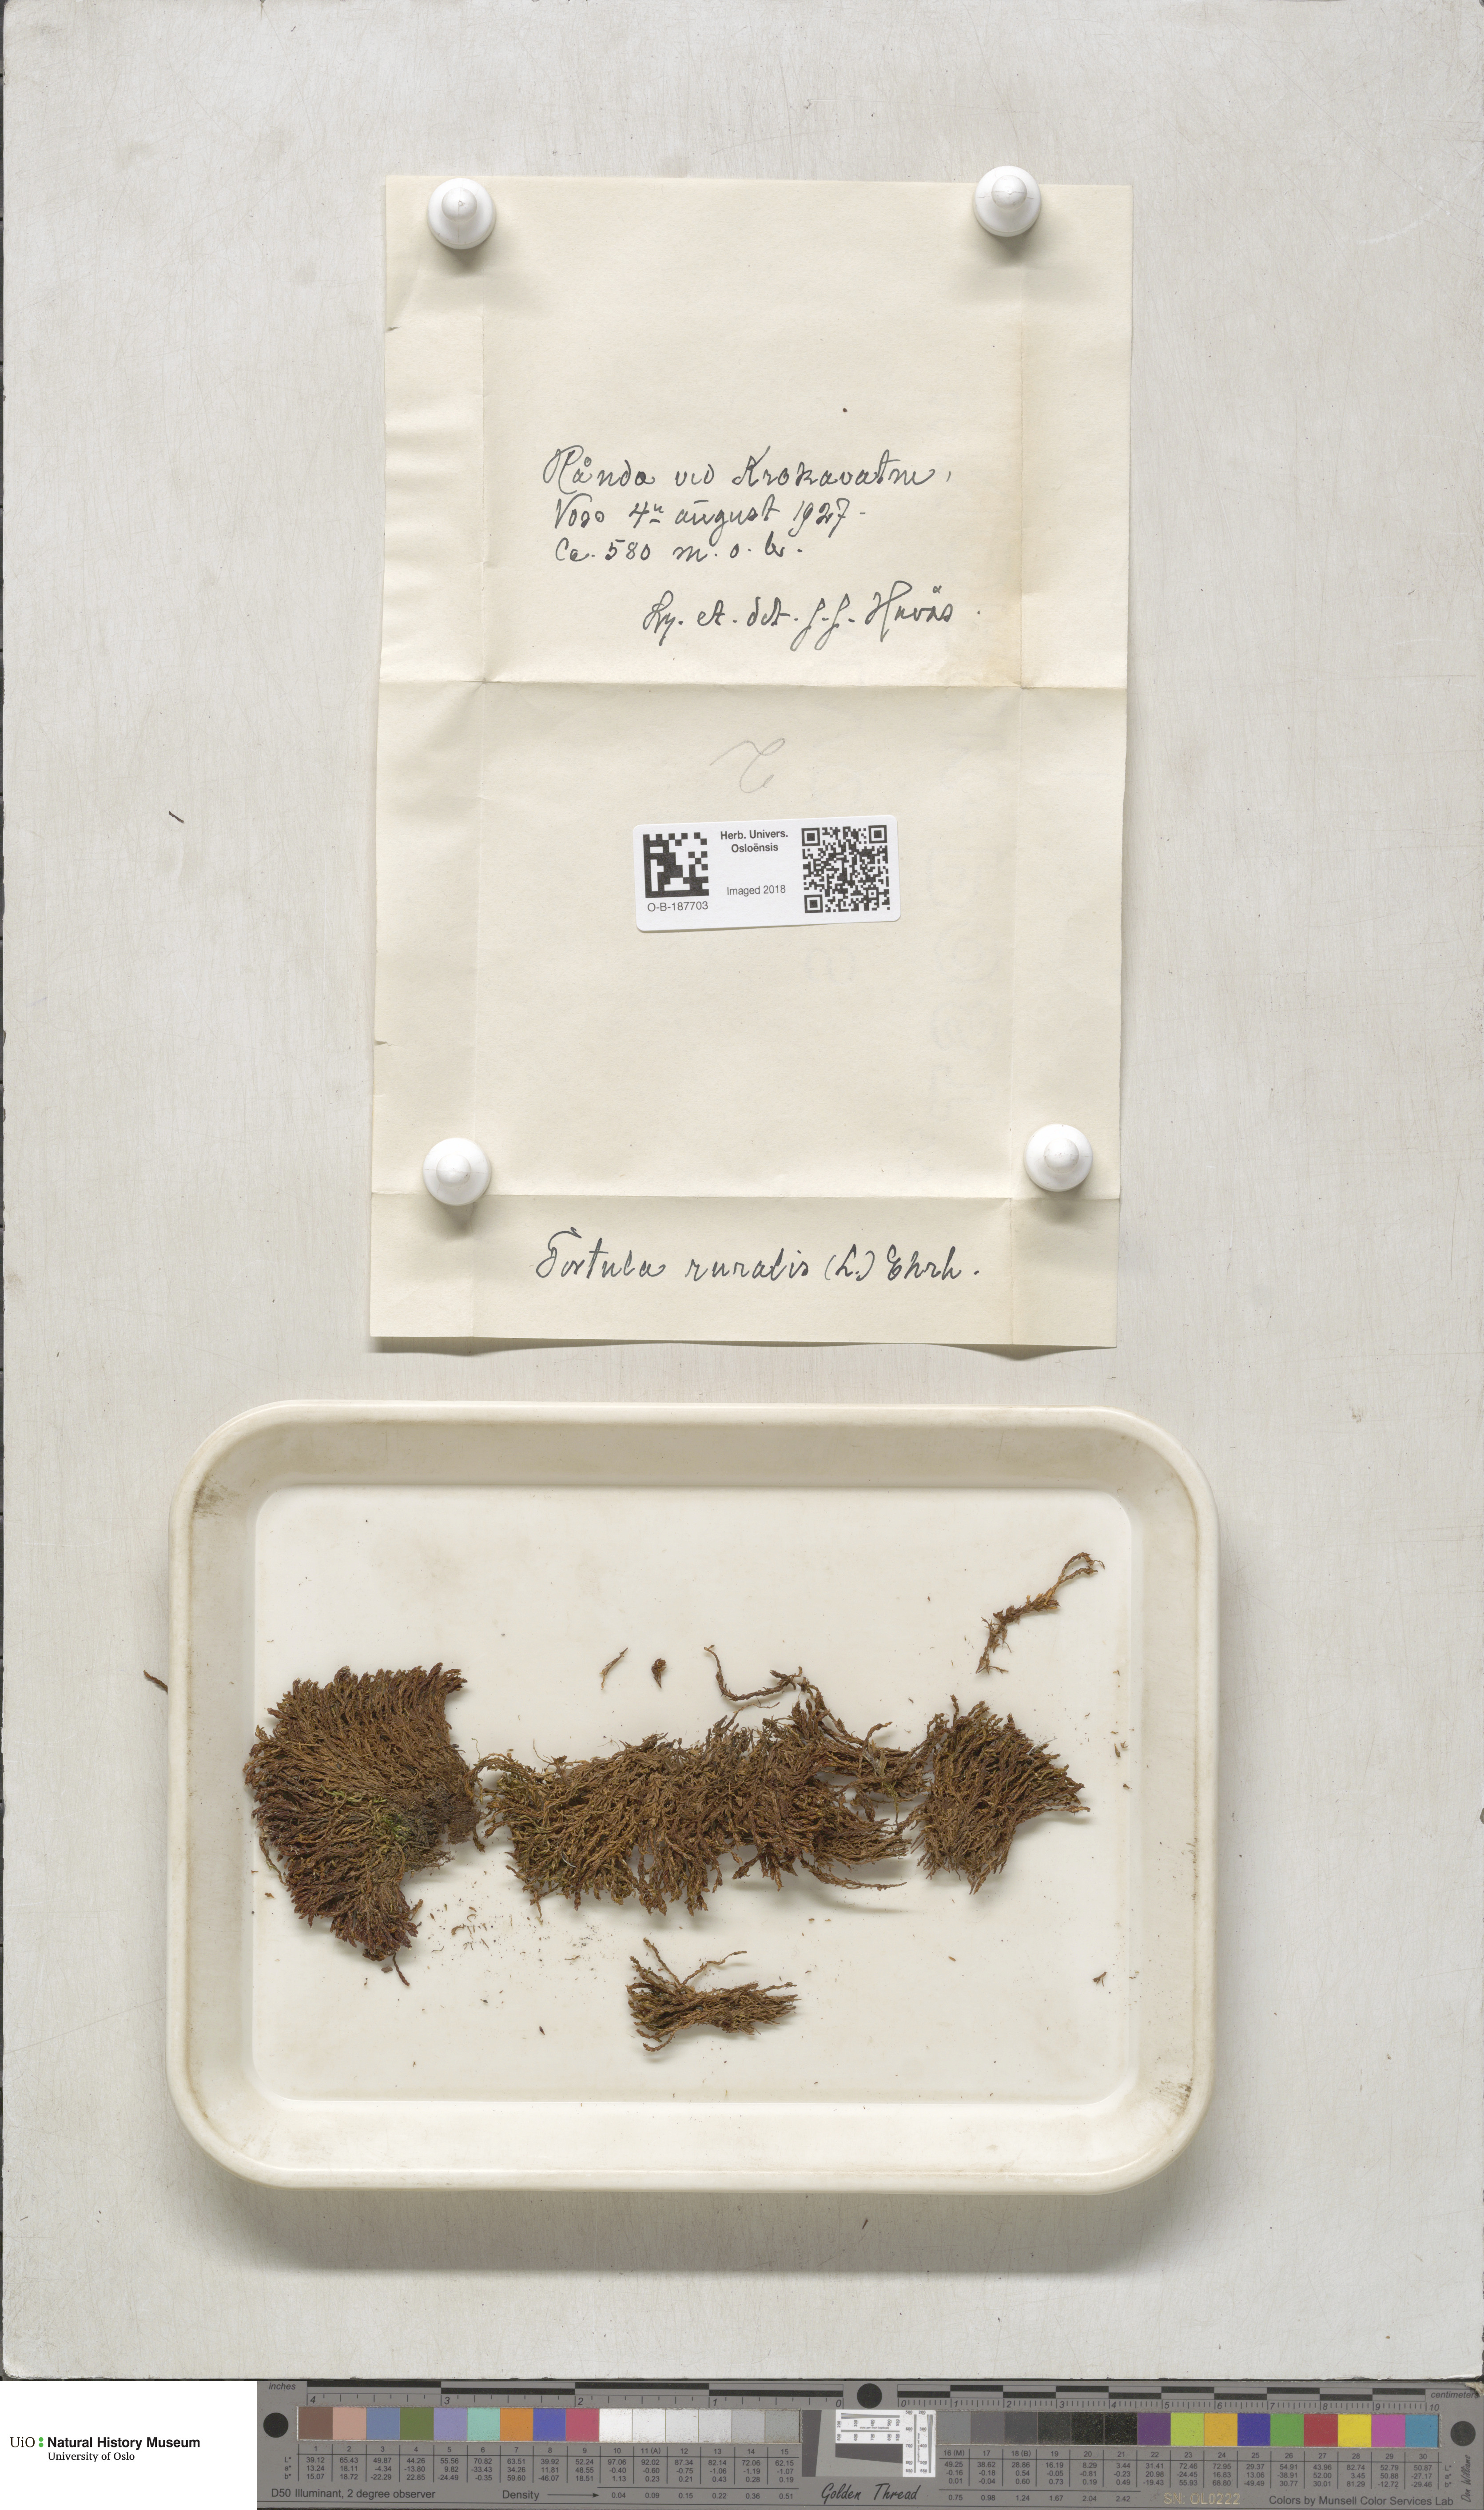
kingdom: Plantae
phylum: Bryophyta
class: Bryopsida
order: Pottiales
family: Pottiaceae
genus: Syntrichia
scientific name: Syntrichia ruralis
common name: Sidewalk screw moss
